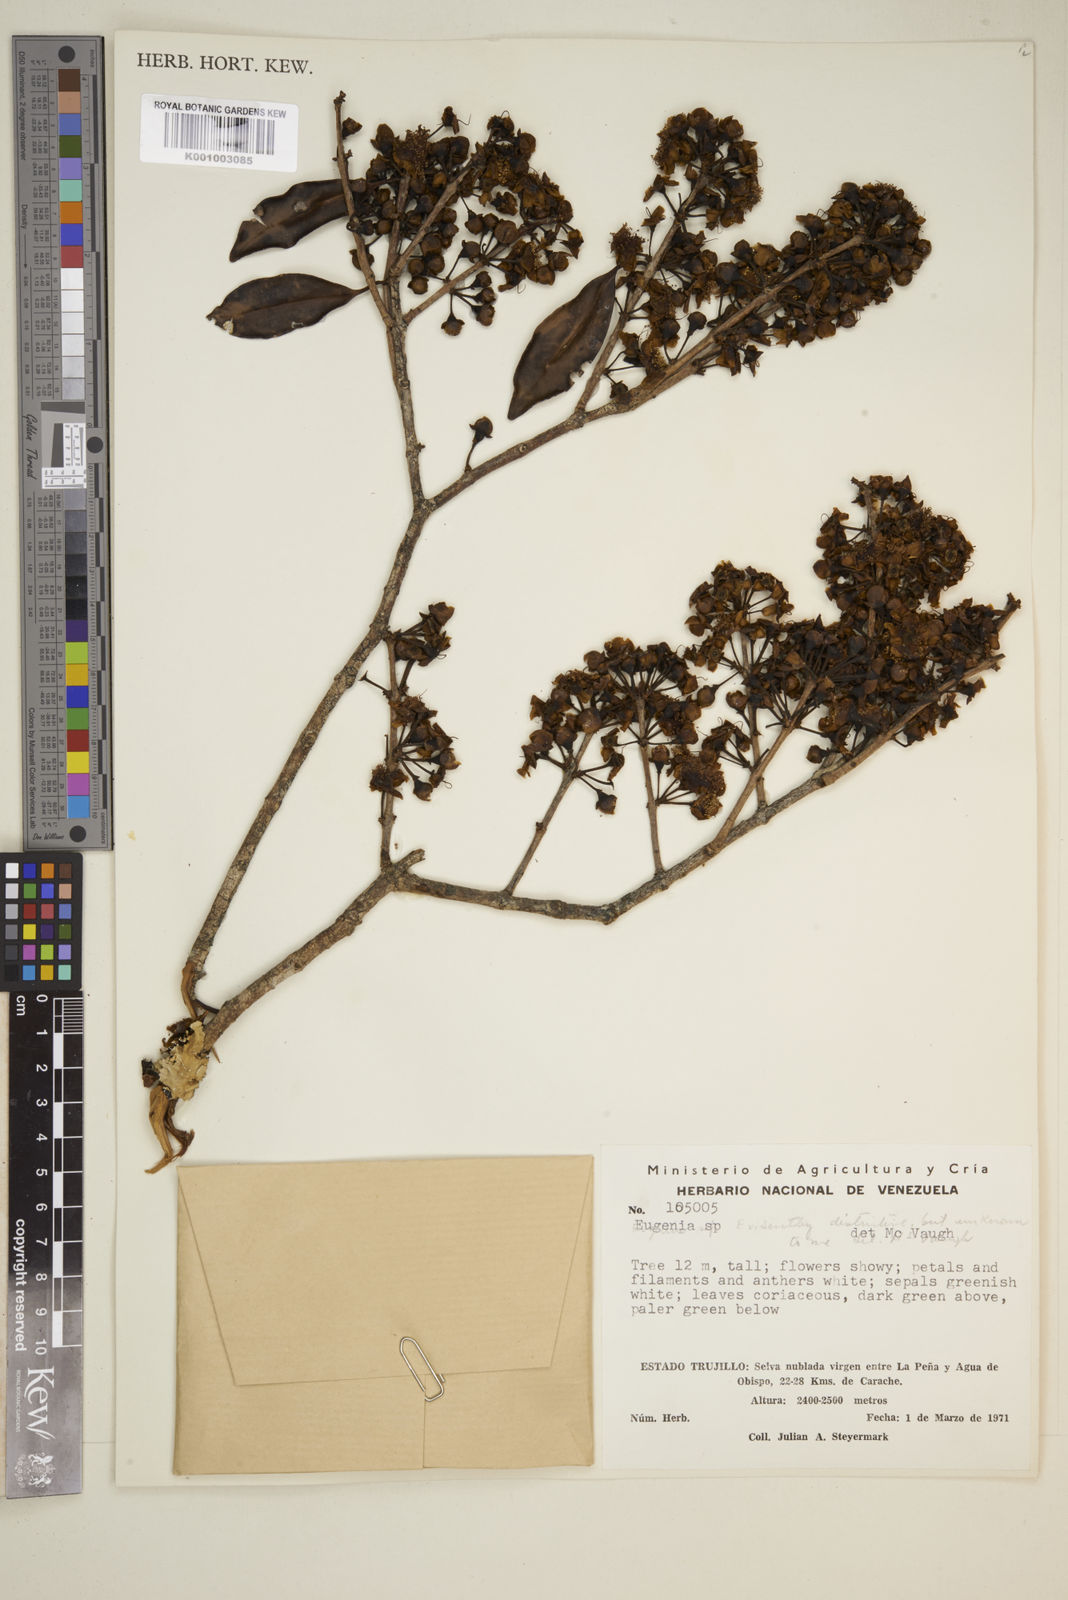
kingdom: Plantae
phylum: Tracheophyta
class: Magnoliopsida
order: Myrtales
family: Myrtaceae
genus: Eugenia
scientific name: Eugenia
